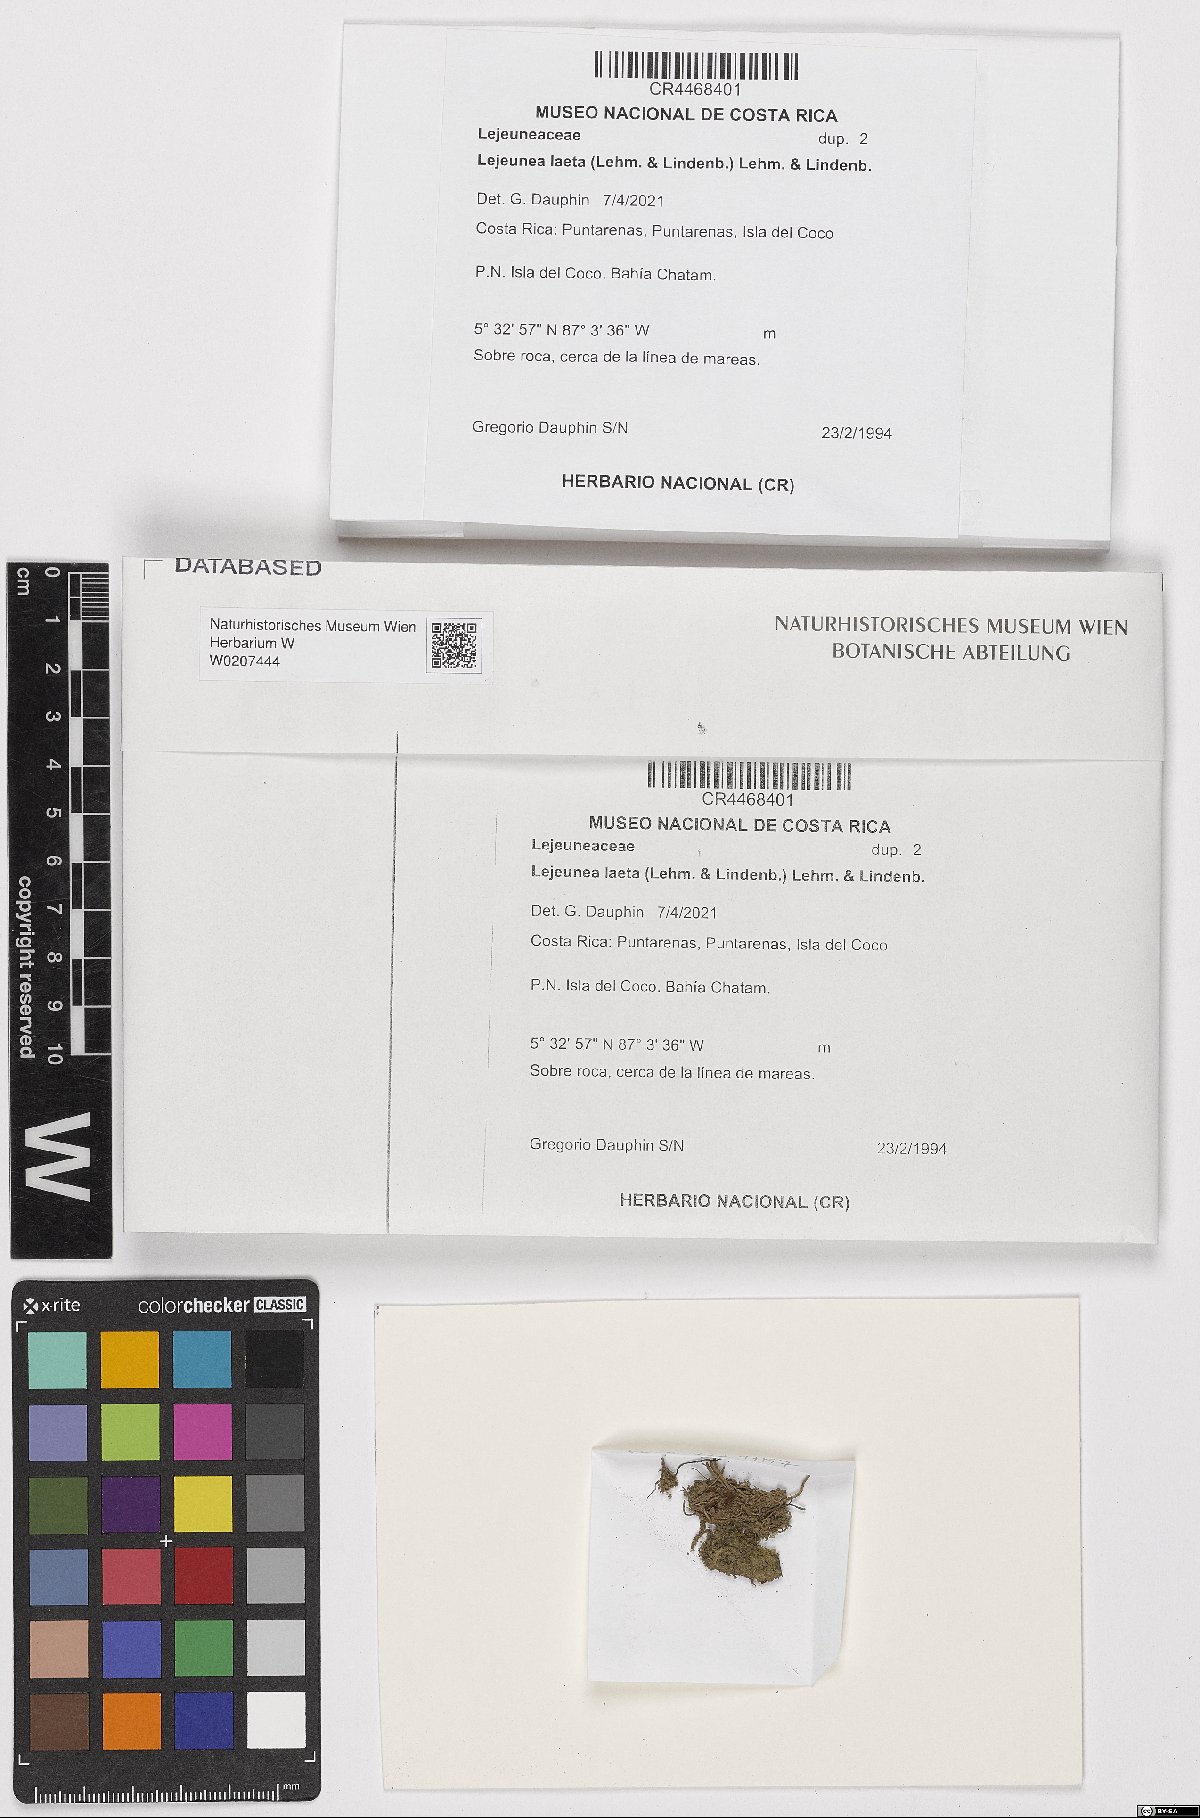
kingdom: Plantae
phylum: Marchantiophyta
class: Jungermanniopsida
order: Porellales
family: Lejeuneaceae
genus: Lejeunea
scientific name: Lejeunea laeta
